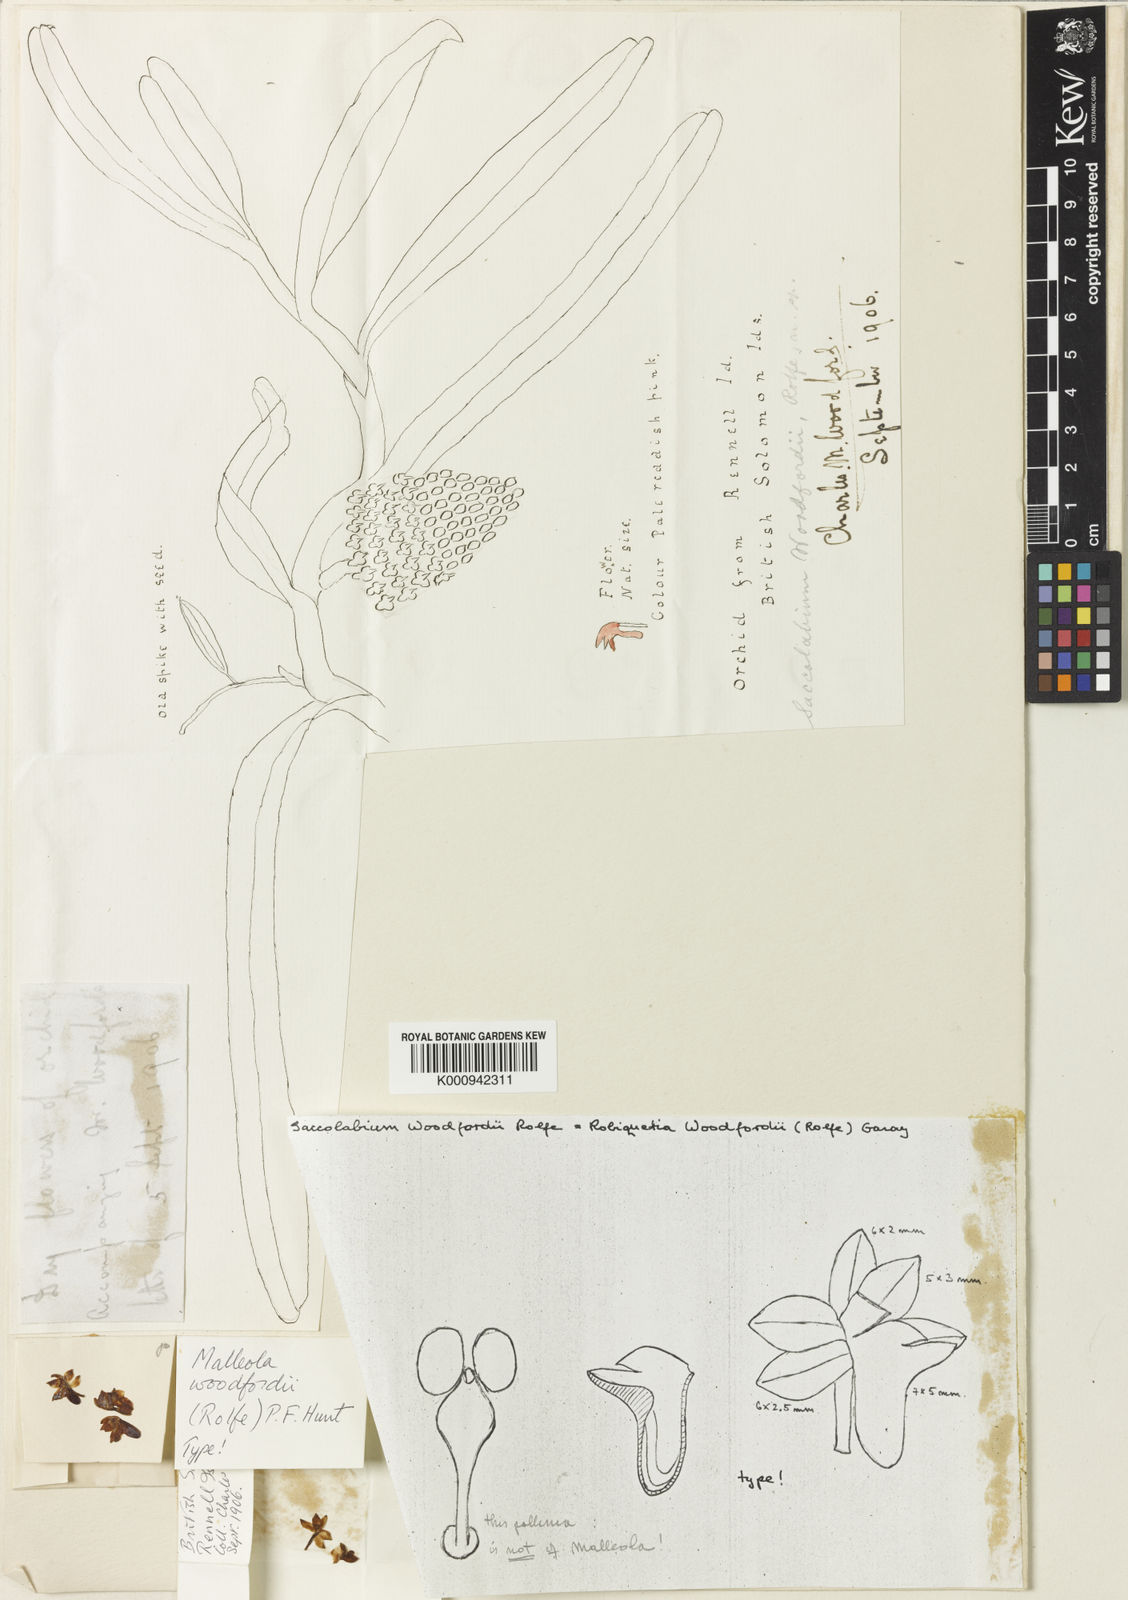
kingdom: Plantae
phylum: Tracheophyta
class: Liliopsida
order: Asparagales
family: Orchidaceae
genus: Robiquetia
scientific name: Robiquetia woodfordii
